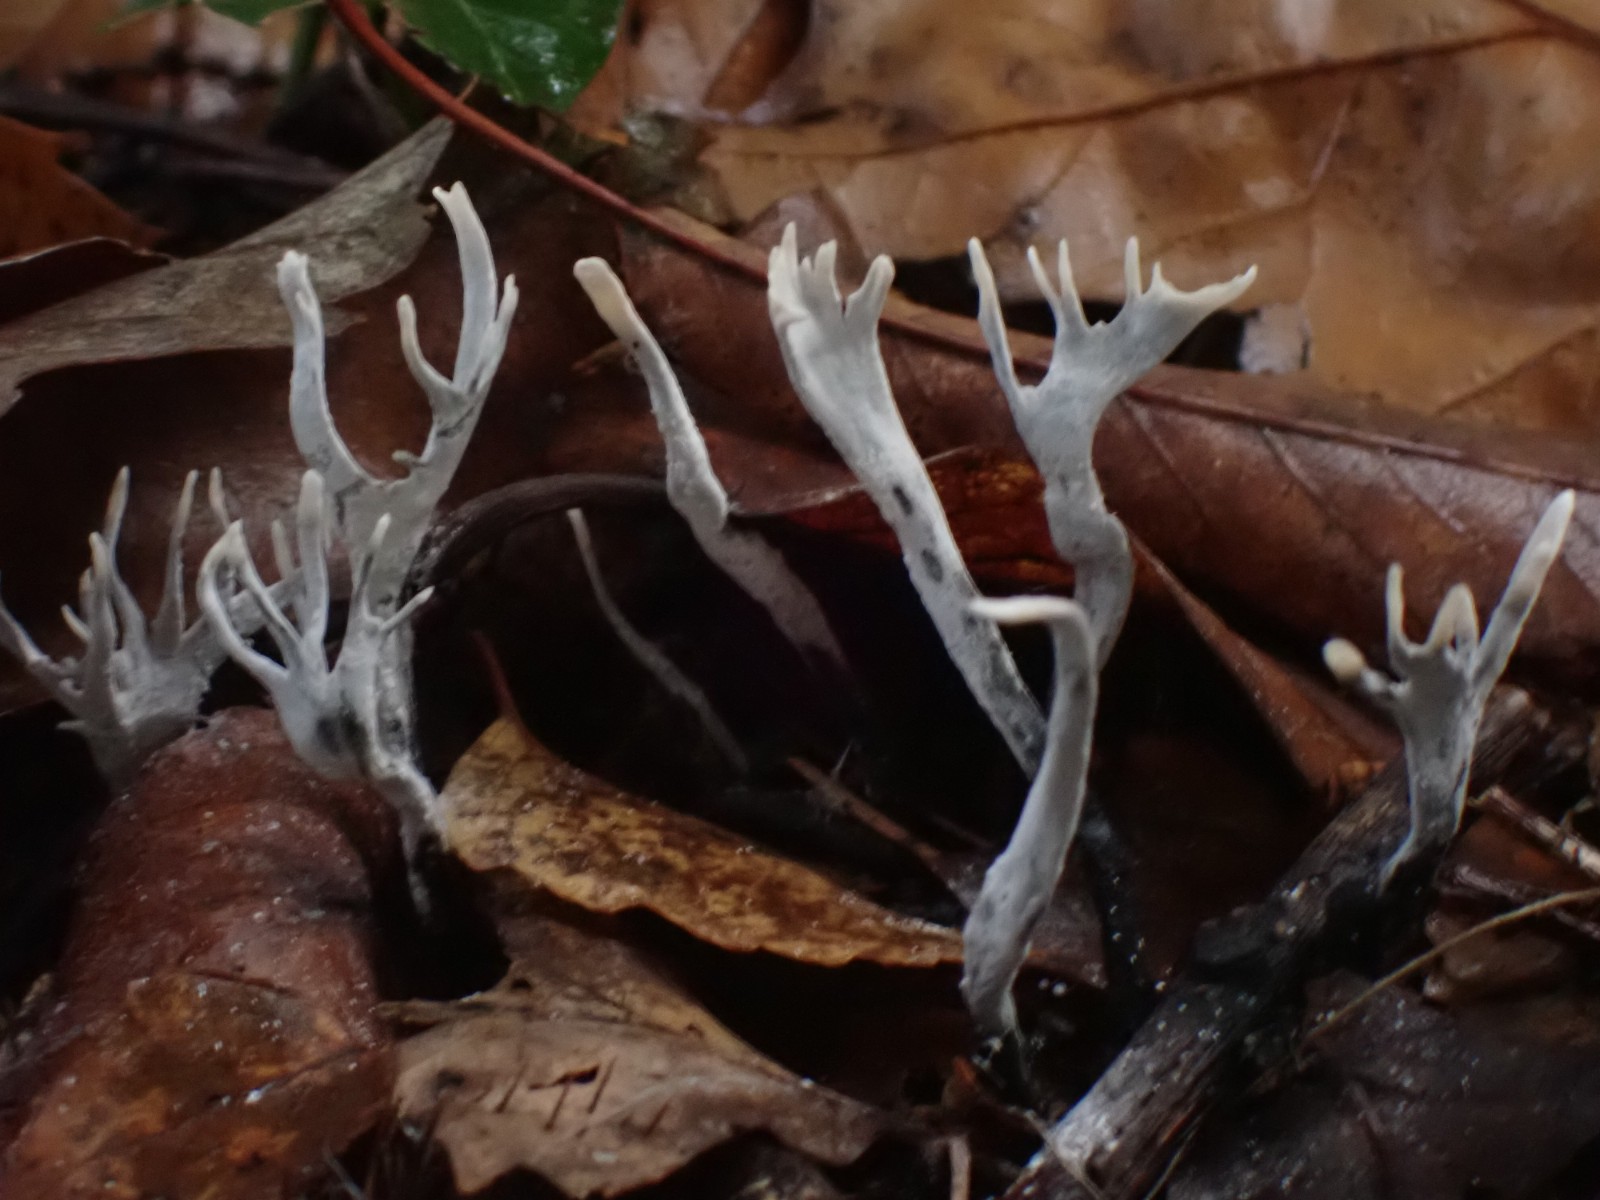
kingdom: Fungi
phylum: Ascomycota
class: Sordariomycetes
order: Xylariales
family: Xylariaceae
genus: Xylaria
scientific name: Xylaria hypoxylon
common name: grenet stødsvamp
